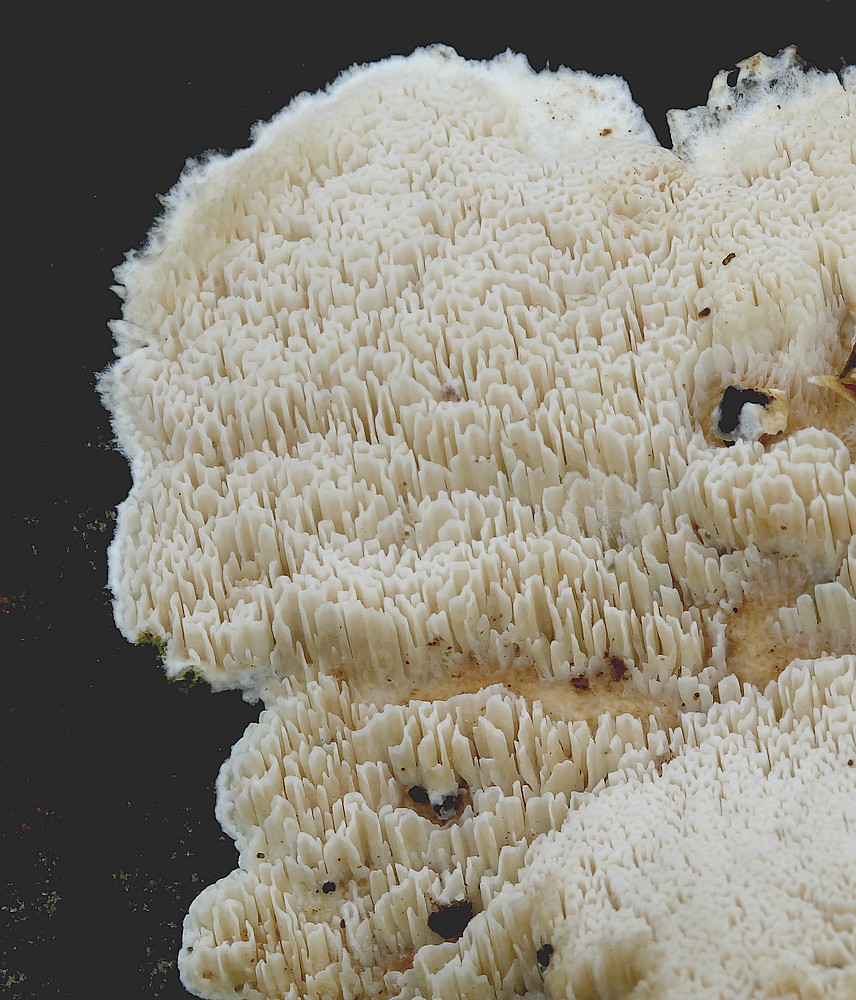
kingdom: Fungi
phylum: Basidiomycota
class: Agaricomycetes
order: Polyporales
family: Phanerochaetaceae
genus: Bjerkandera
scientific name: Bjerkandera fumosa
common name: grågul sodporesvamp
